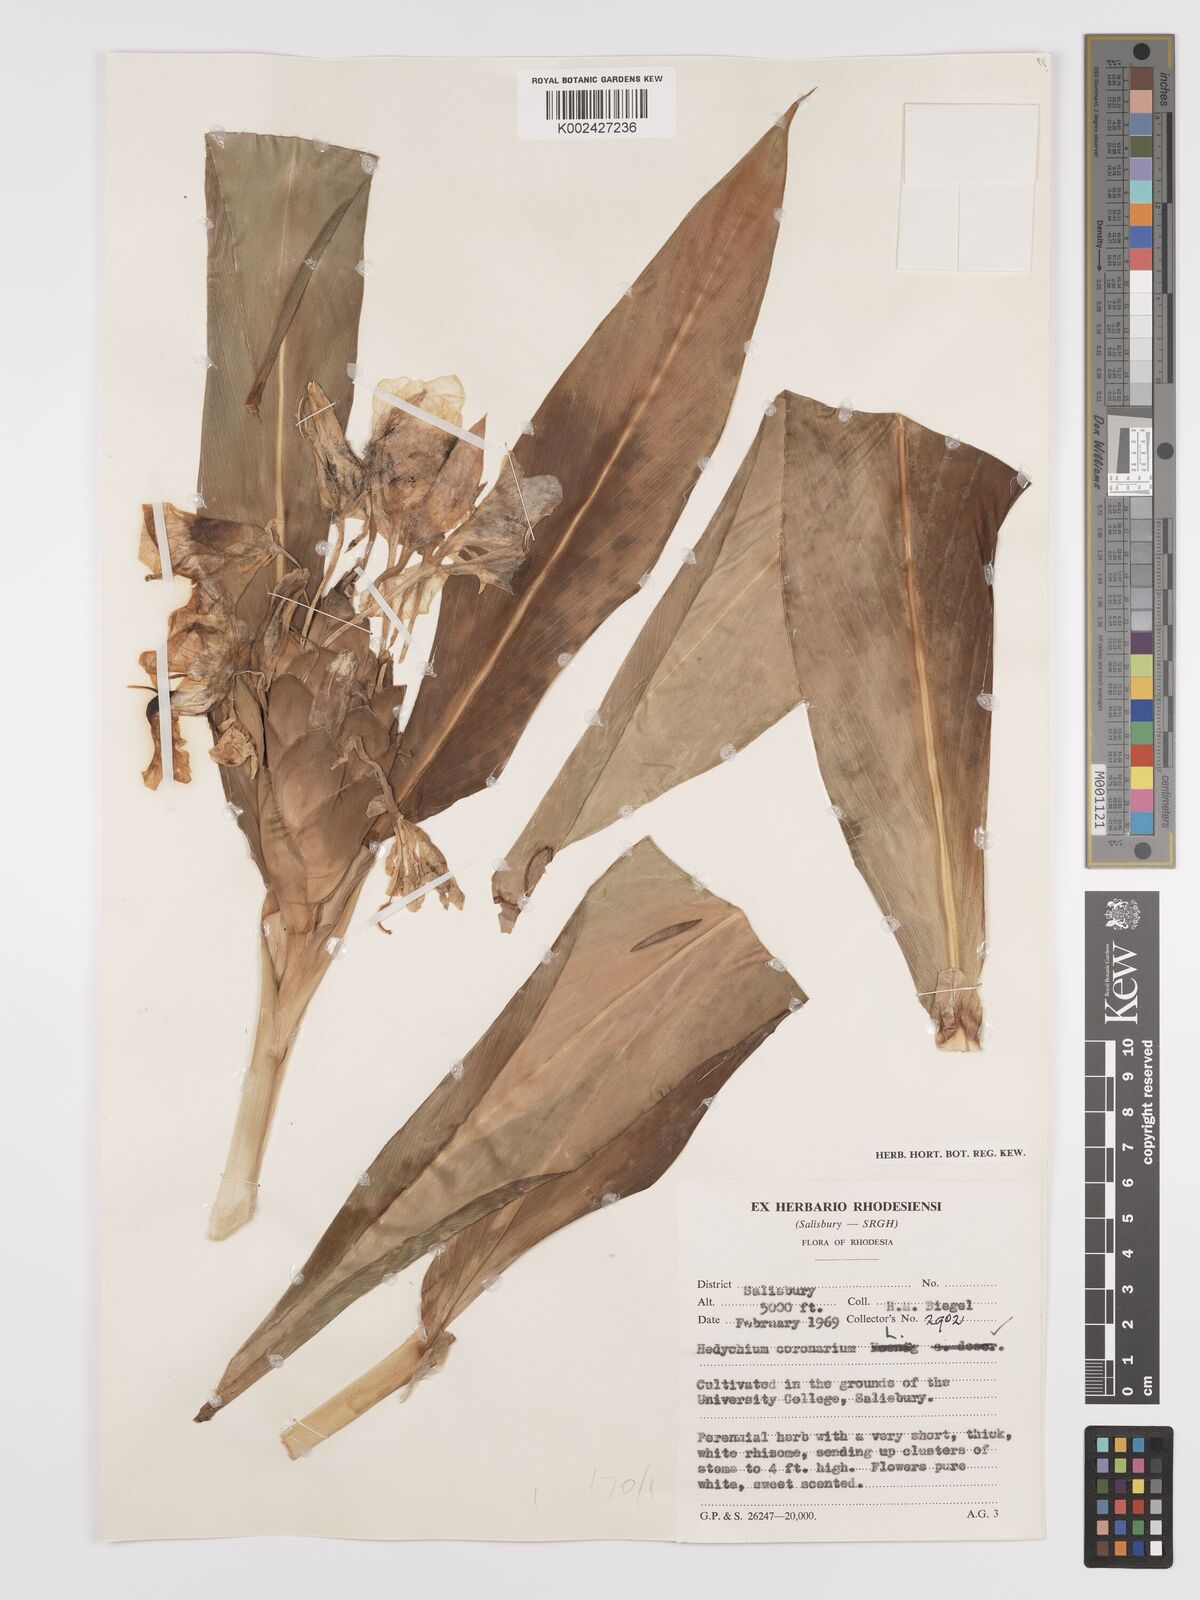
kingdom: Plantae
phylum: Tracheophyta
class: Liliopsida
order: Zingiberales
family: Zingiberaceae
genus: Hedychium
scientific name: Hedychium coronarium
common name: White garland-lily
